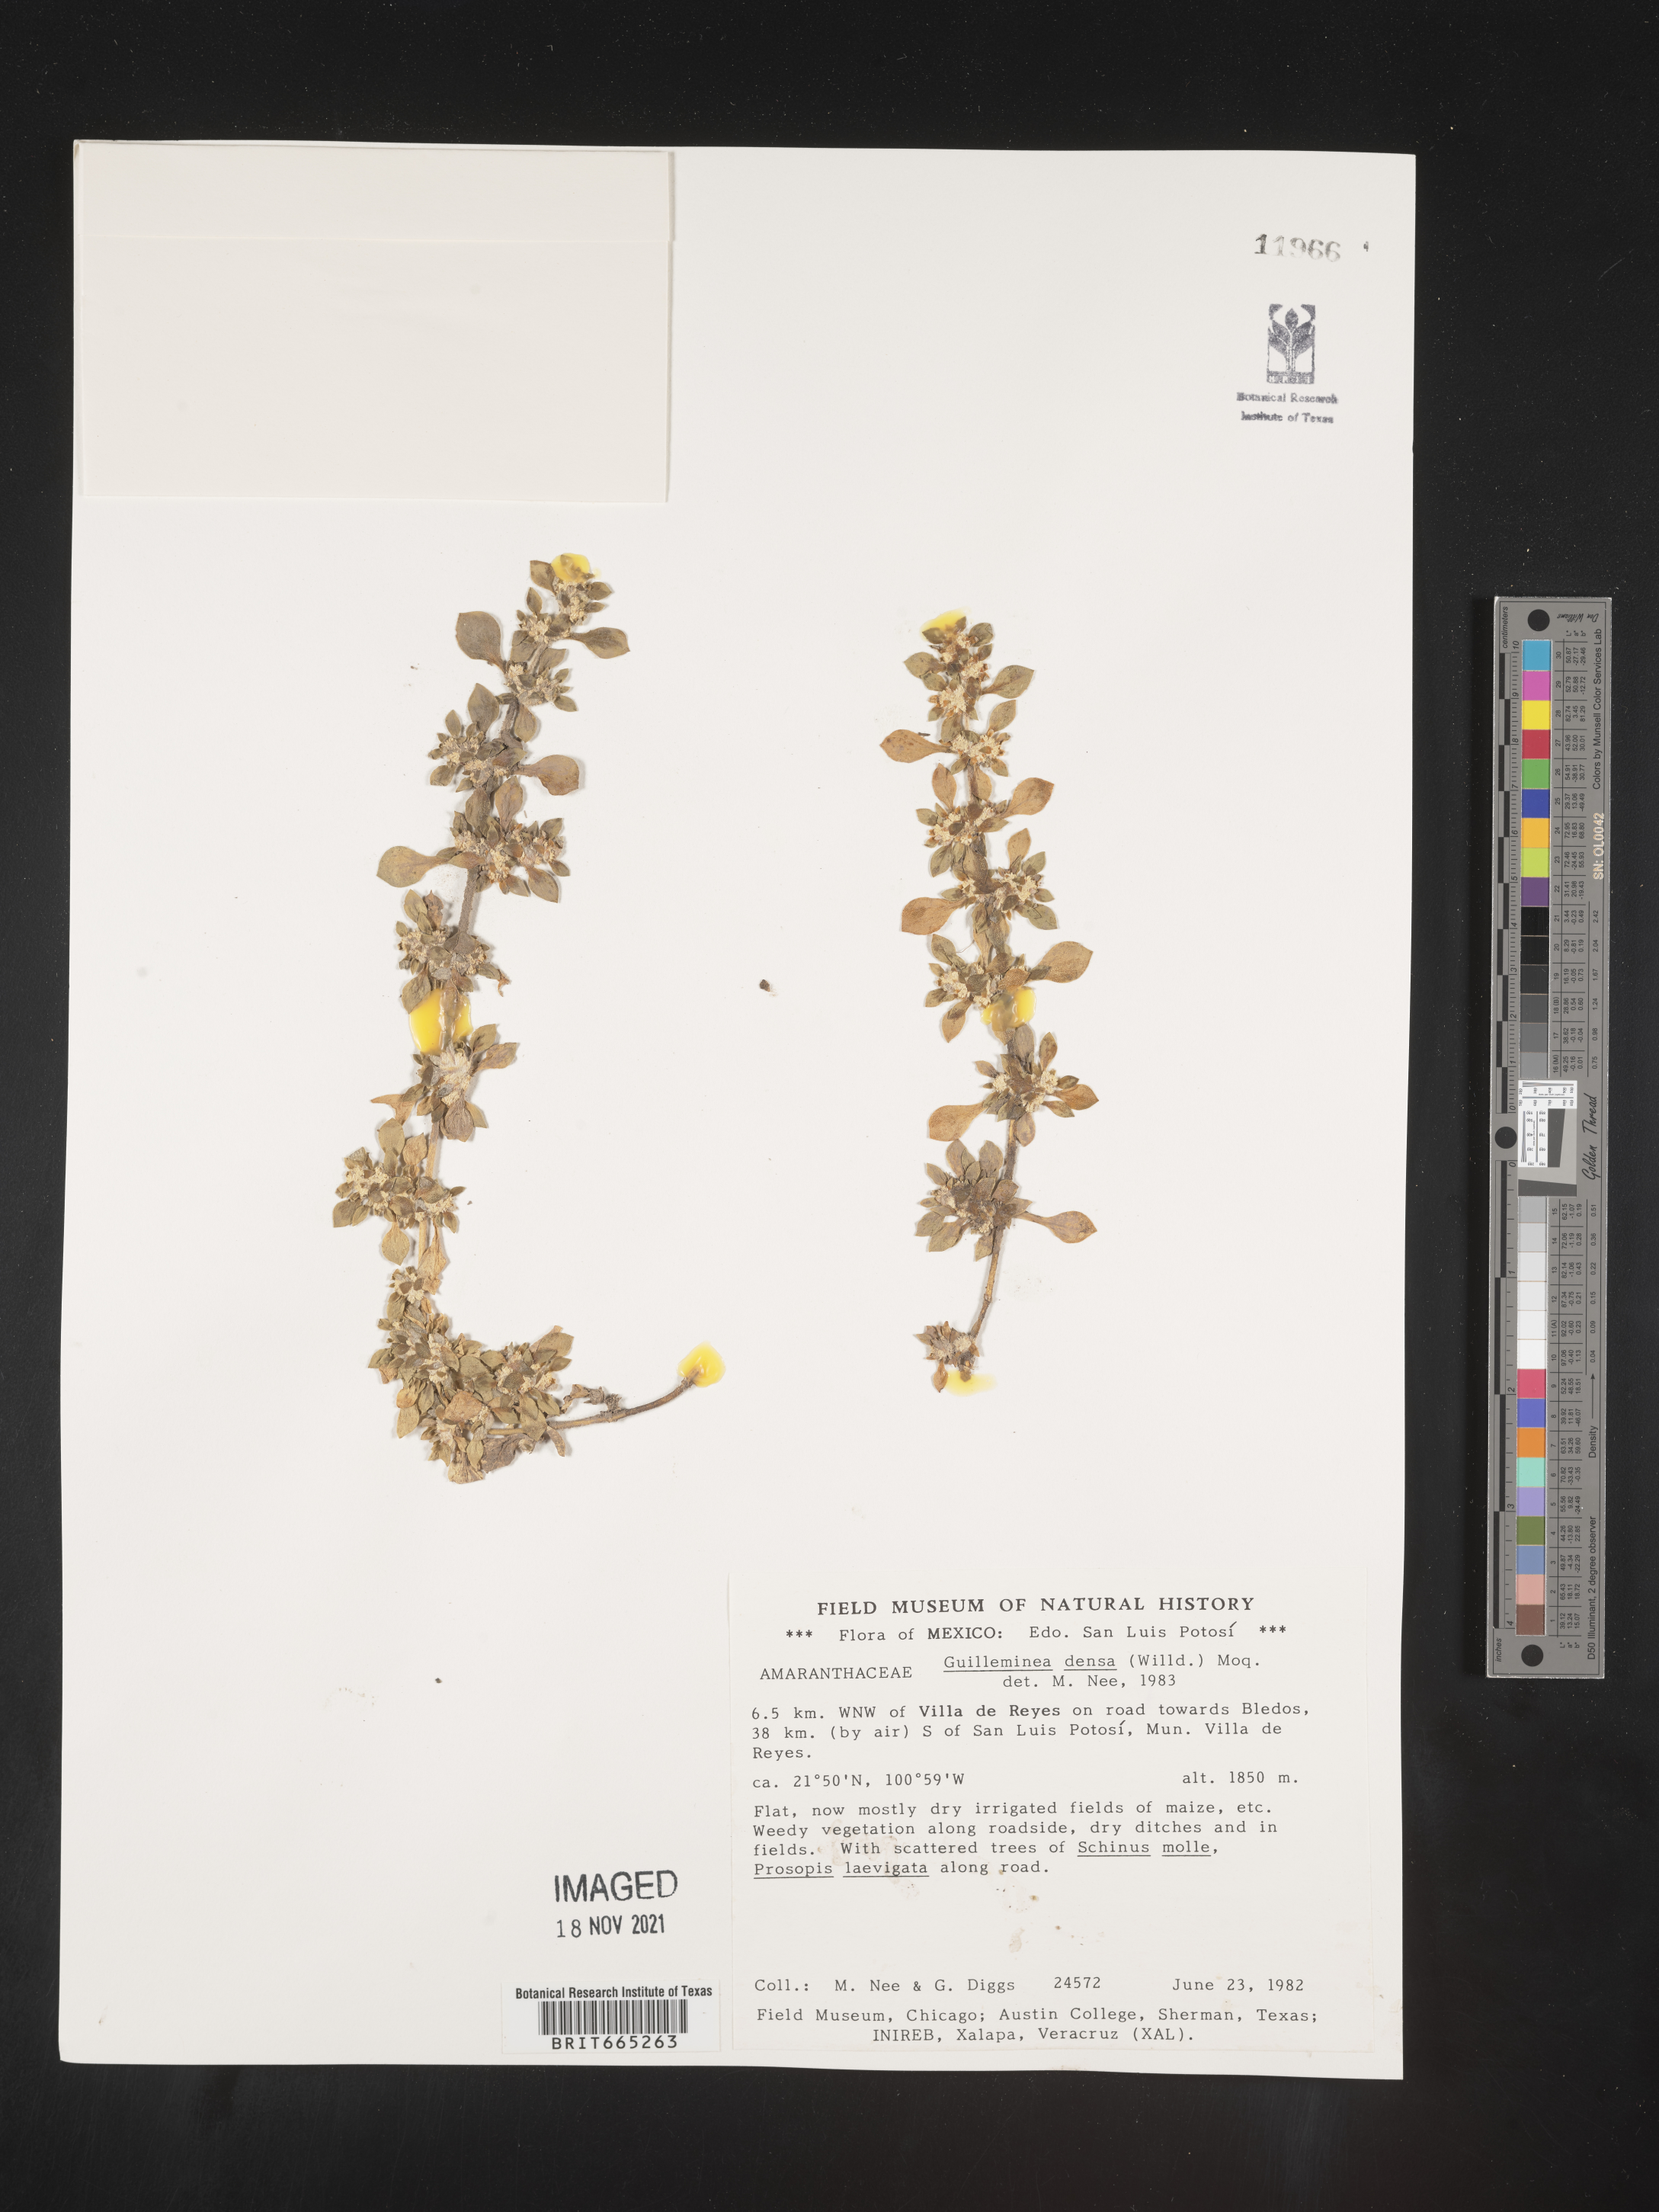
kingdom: Plantae
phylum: Tracheophyta
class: Magnoliopsida
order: Caryophyllales
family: Amaranthaceae
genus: Guilleminea
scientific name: Guilleminea densa
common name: Small matweed
